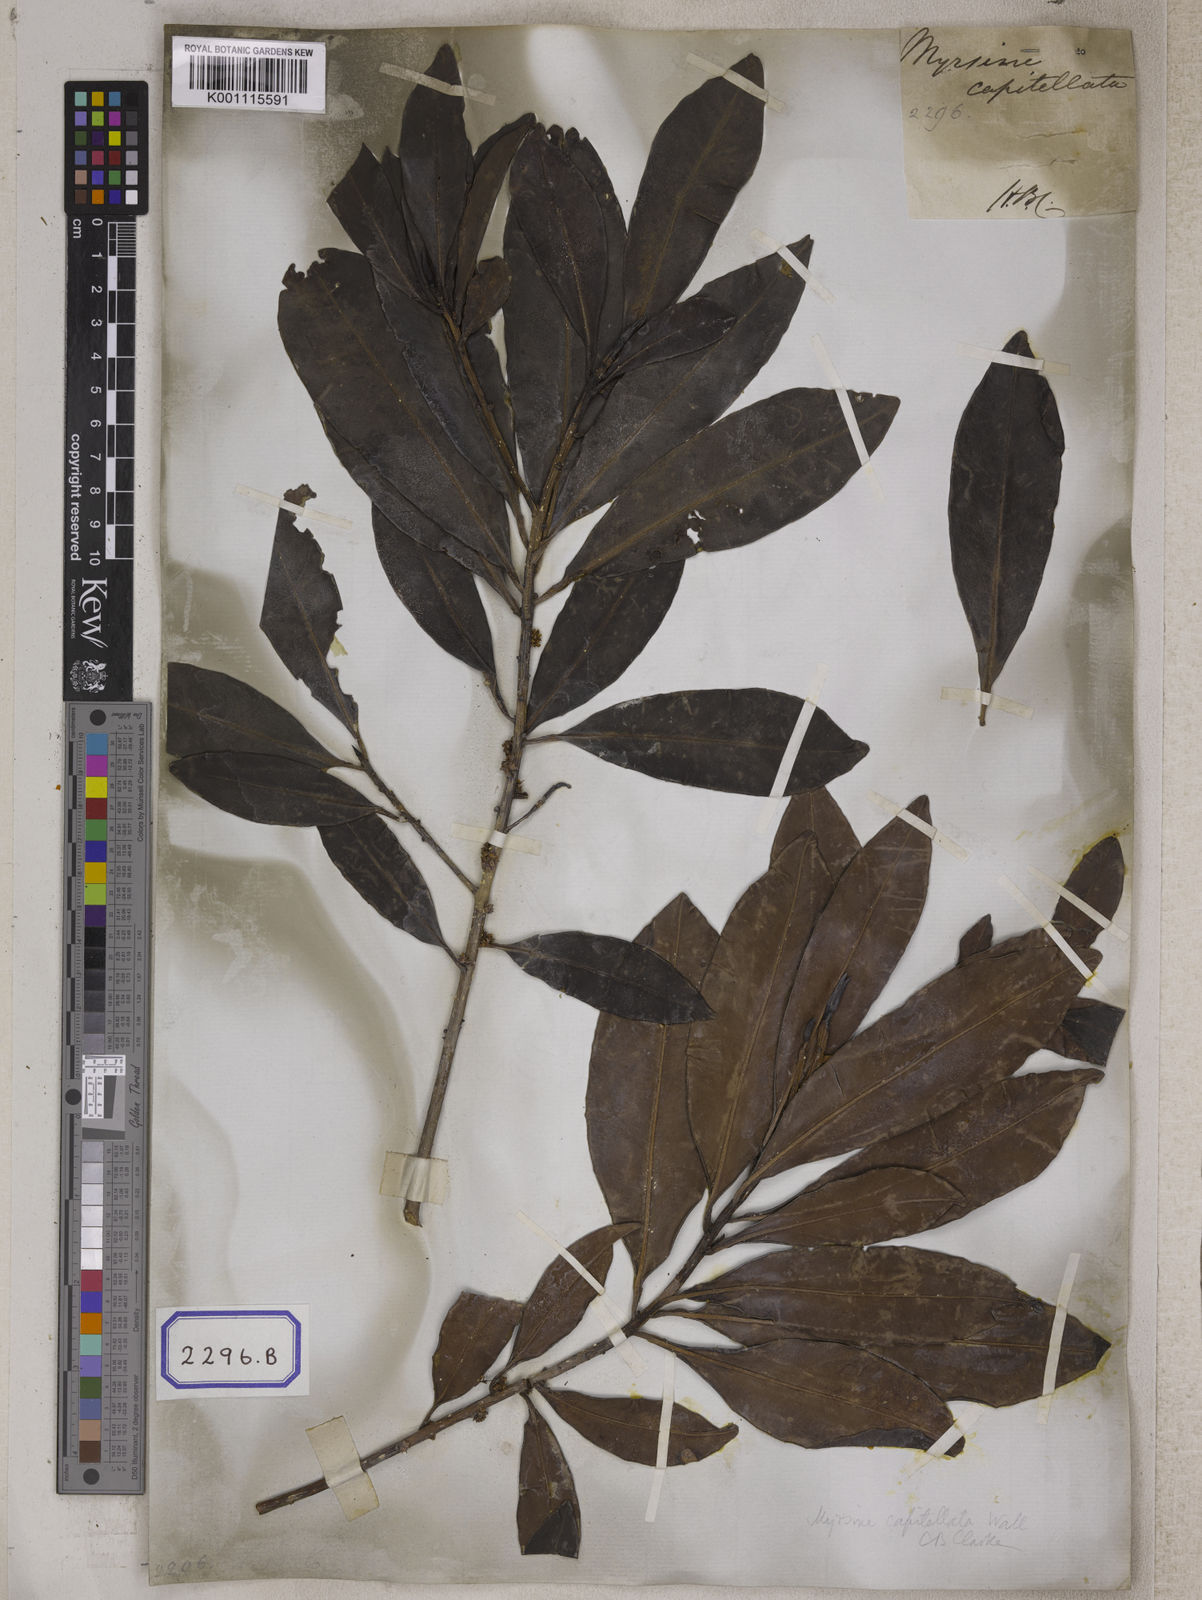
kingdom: Plantae
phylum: Tracheophyta
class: Magnoliopsida
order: Ericales
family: Primulaceae
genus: Myrsine
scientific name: Myrsine capitellata
